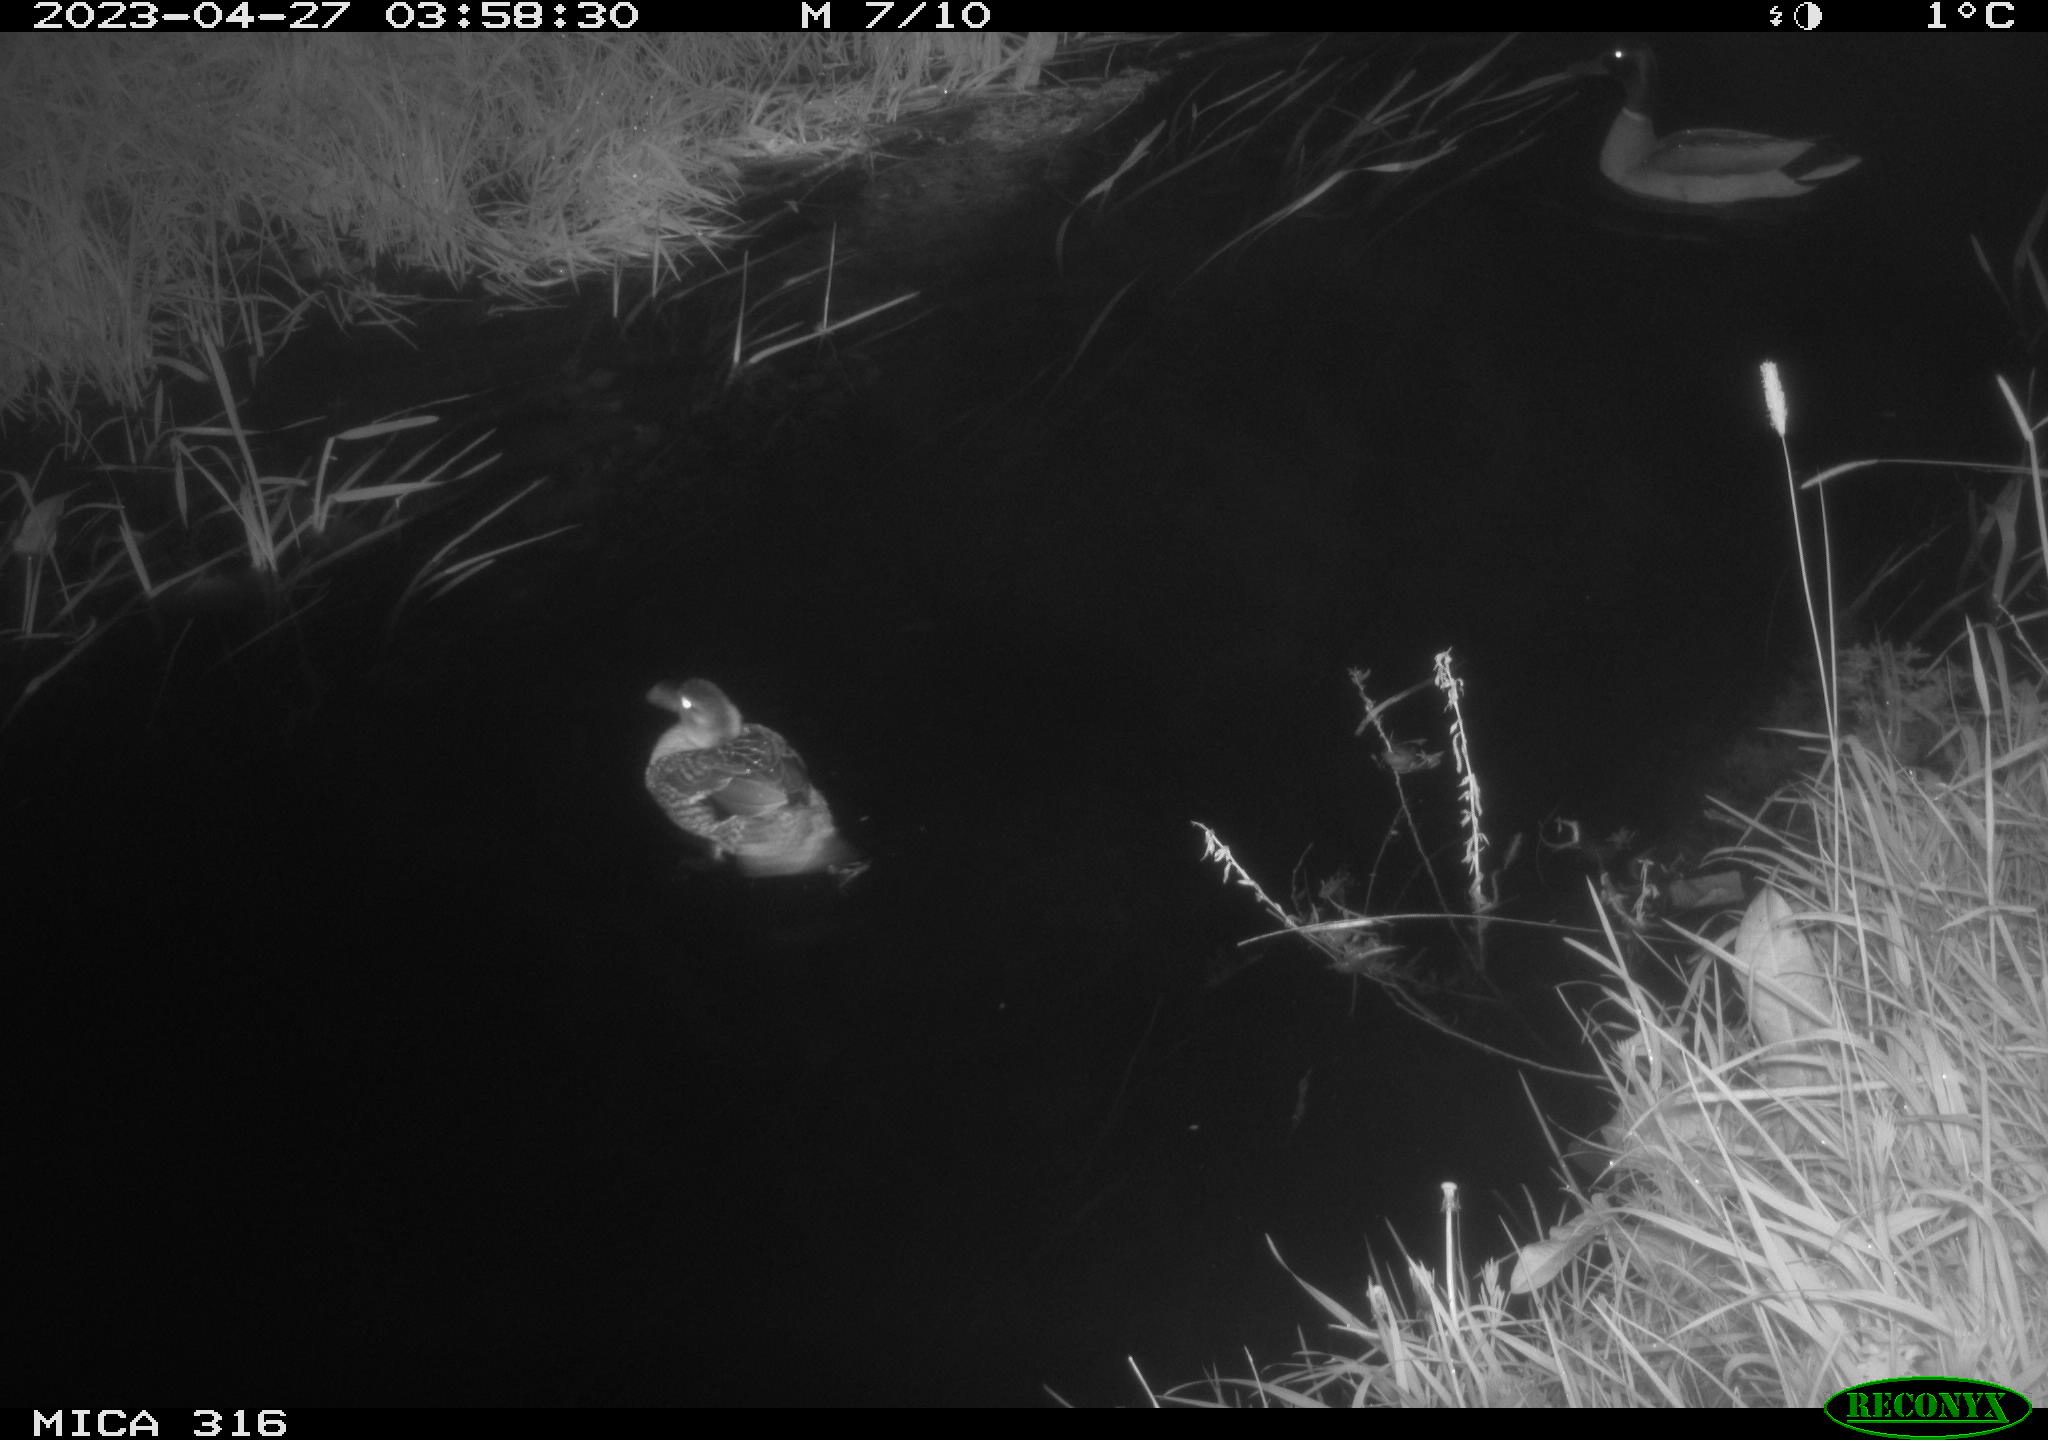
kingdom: Animalia
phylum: Chordata
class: Aves
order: Anseriformes
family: Anatidae
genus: Anas
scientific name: Anas
